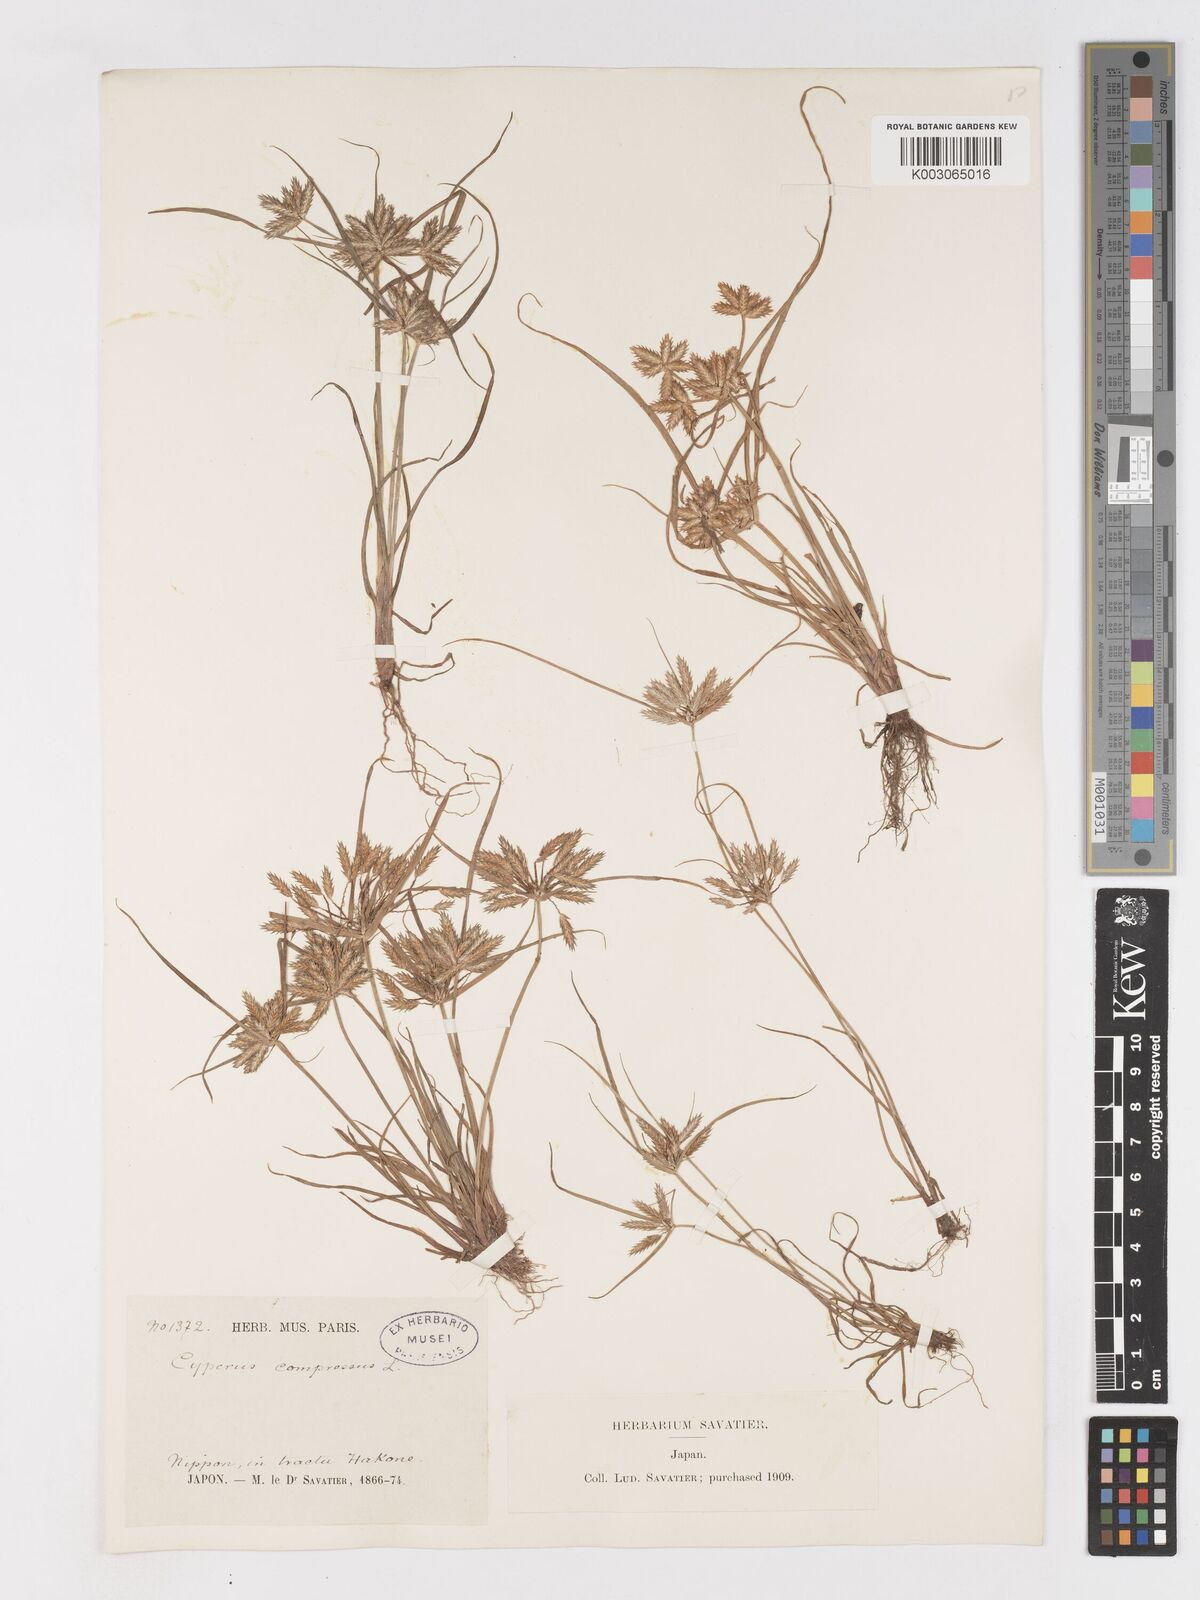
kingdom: Plantae
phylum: Tracheophyta
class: Liliopsida
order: Poales
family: Cyperaceae
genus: Cyperus
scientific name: Cyperus compressus
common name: Poorland flatsedge
